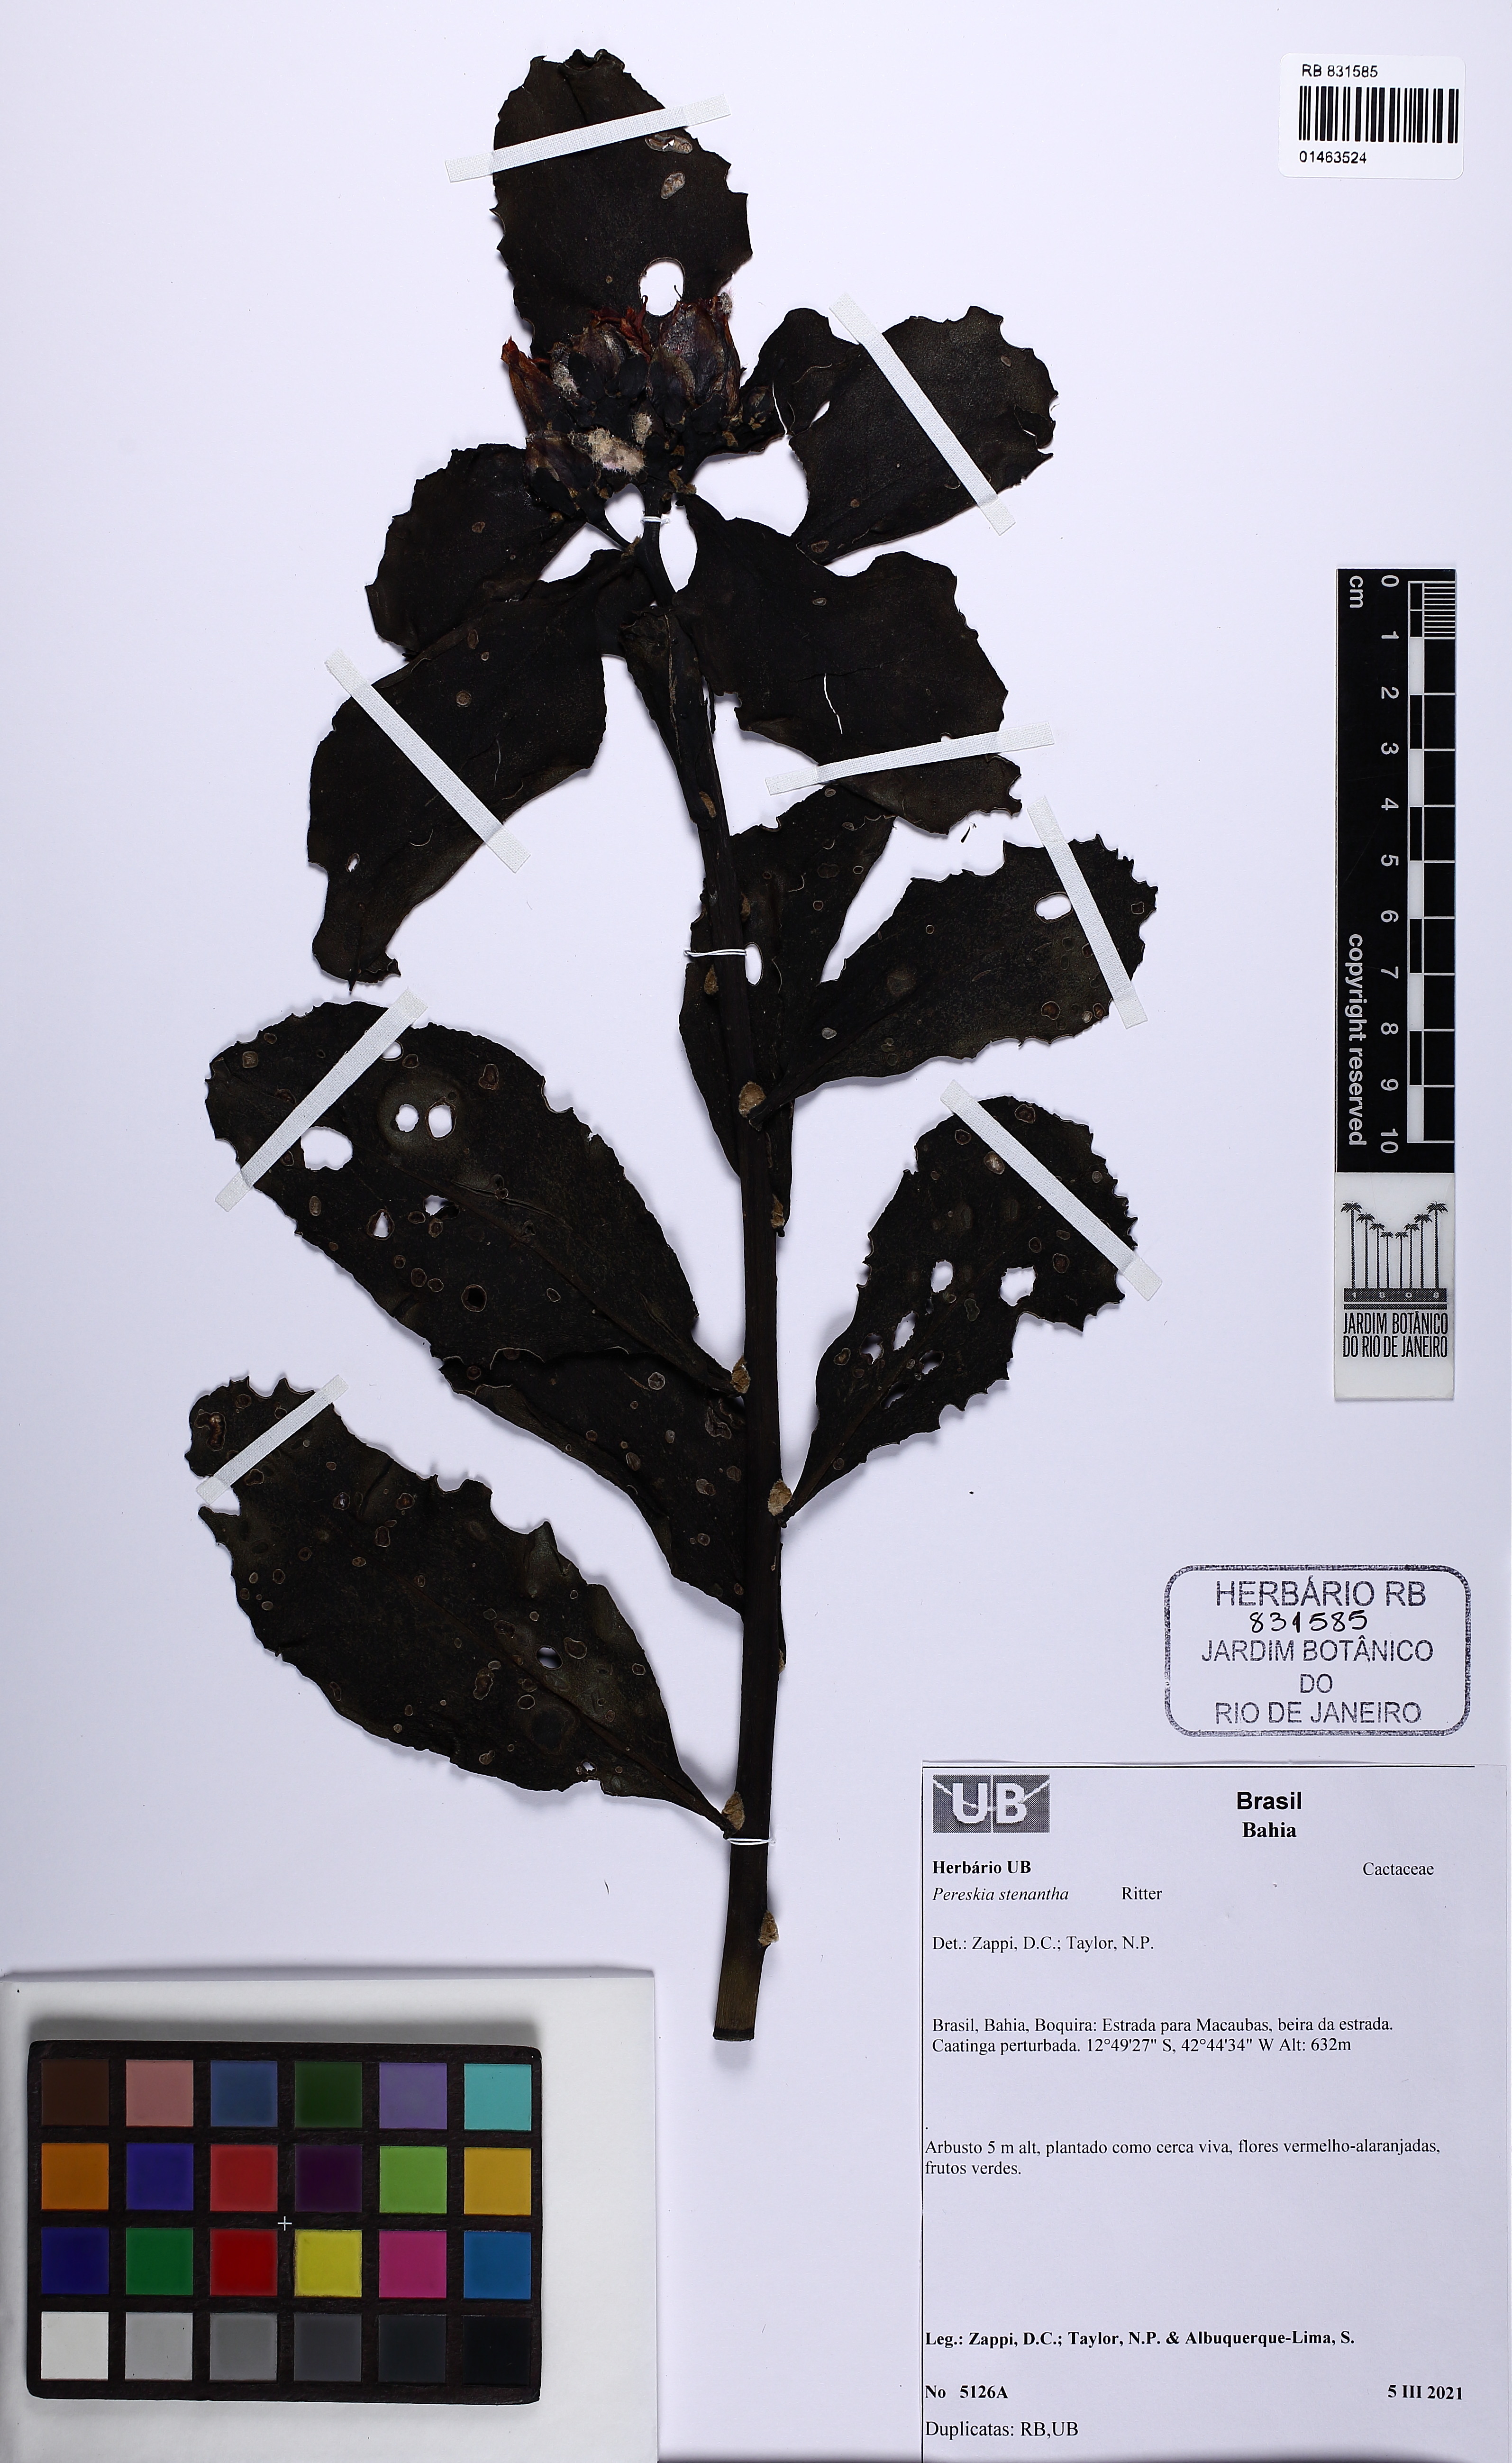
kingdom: Plantae
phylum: Tracheophyta
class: Magnoliopsida
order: Caryophyllales
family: Cactaceae
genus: Pereskia
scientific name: Pereskia stenantha
